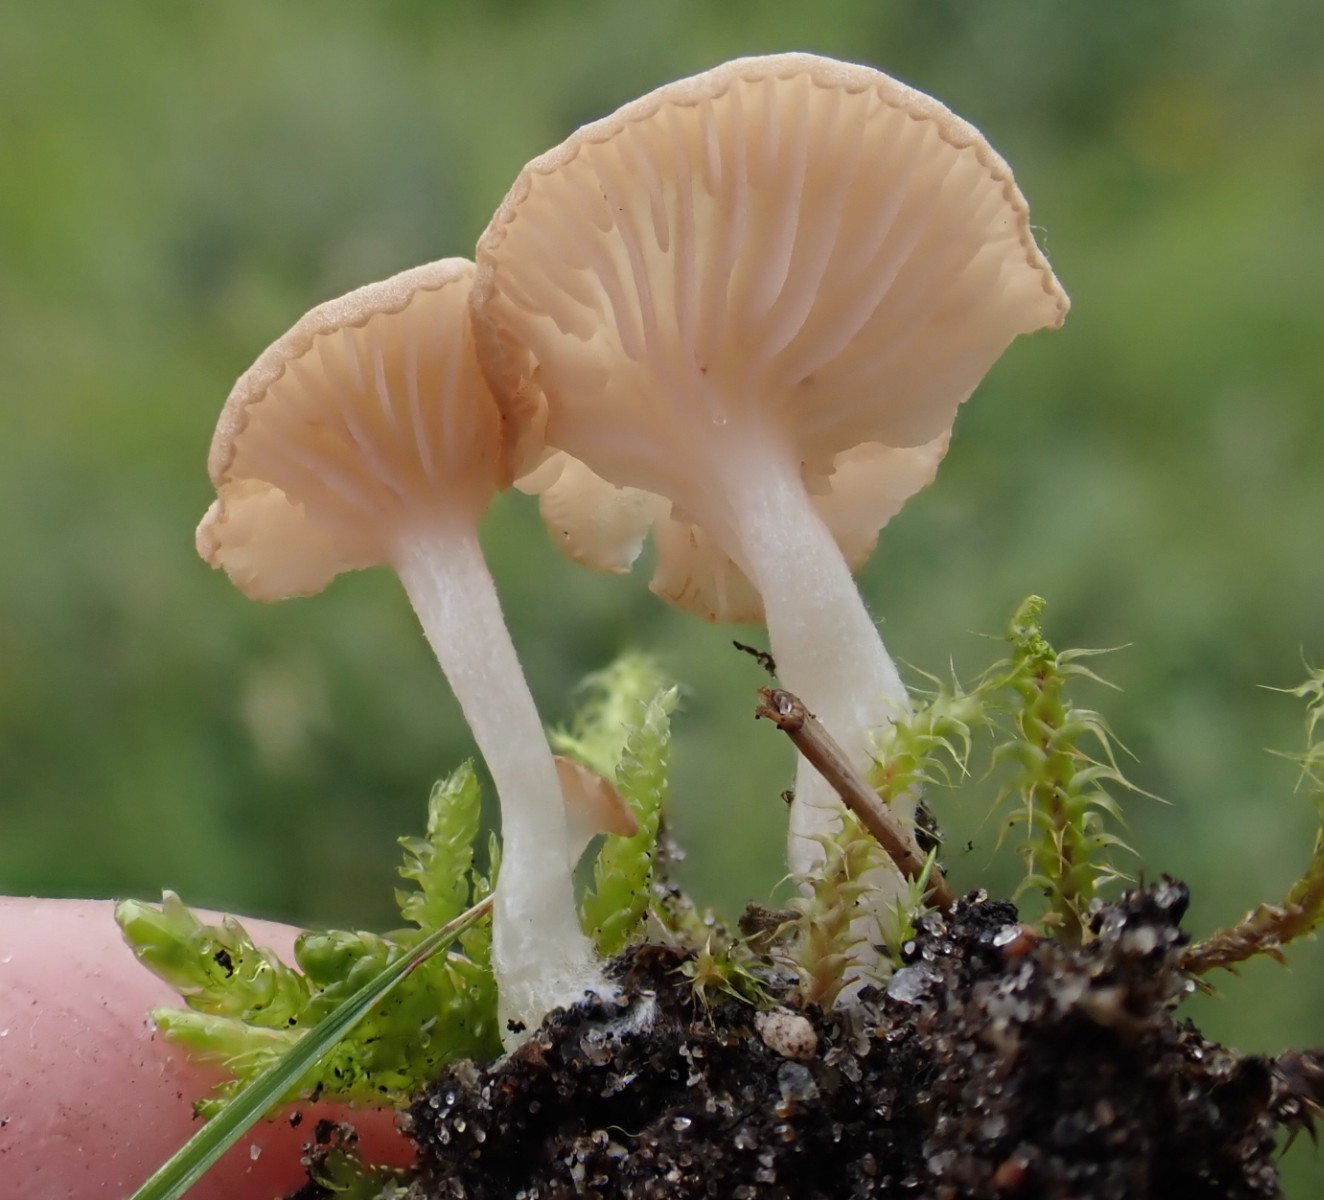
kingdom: Fungi
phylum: Basidiomycota
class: Agaricomycetes
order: Agaricales
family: Entolomataceae
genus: Entoloma
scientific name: Entoloma neglectum
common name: bleg rødblad
